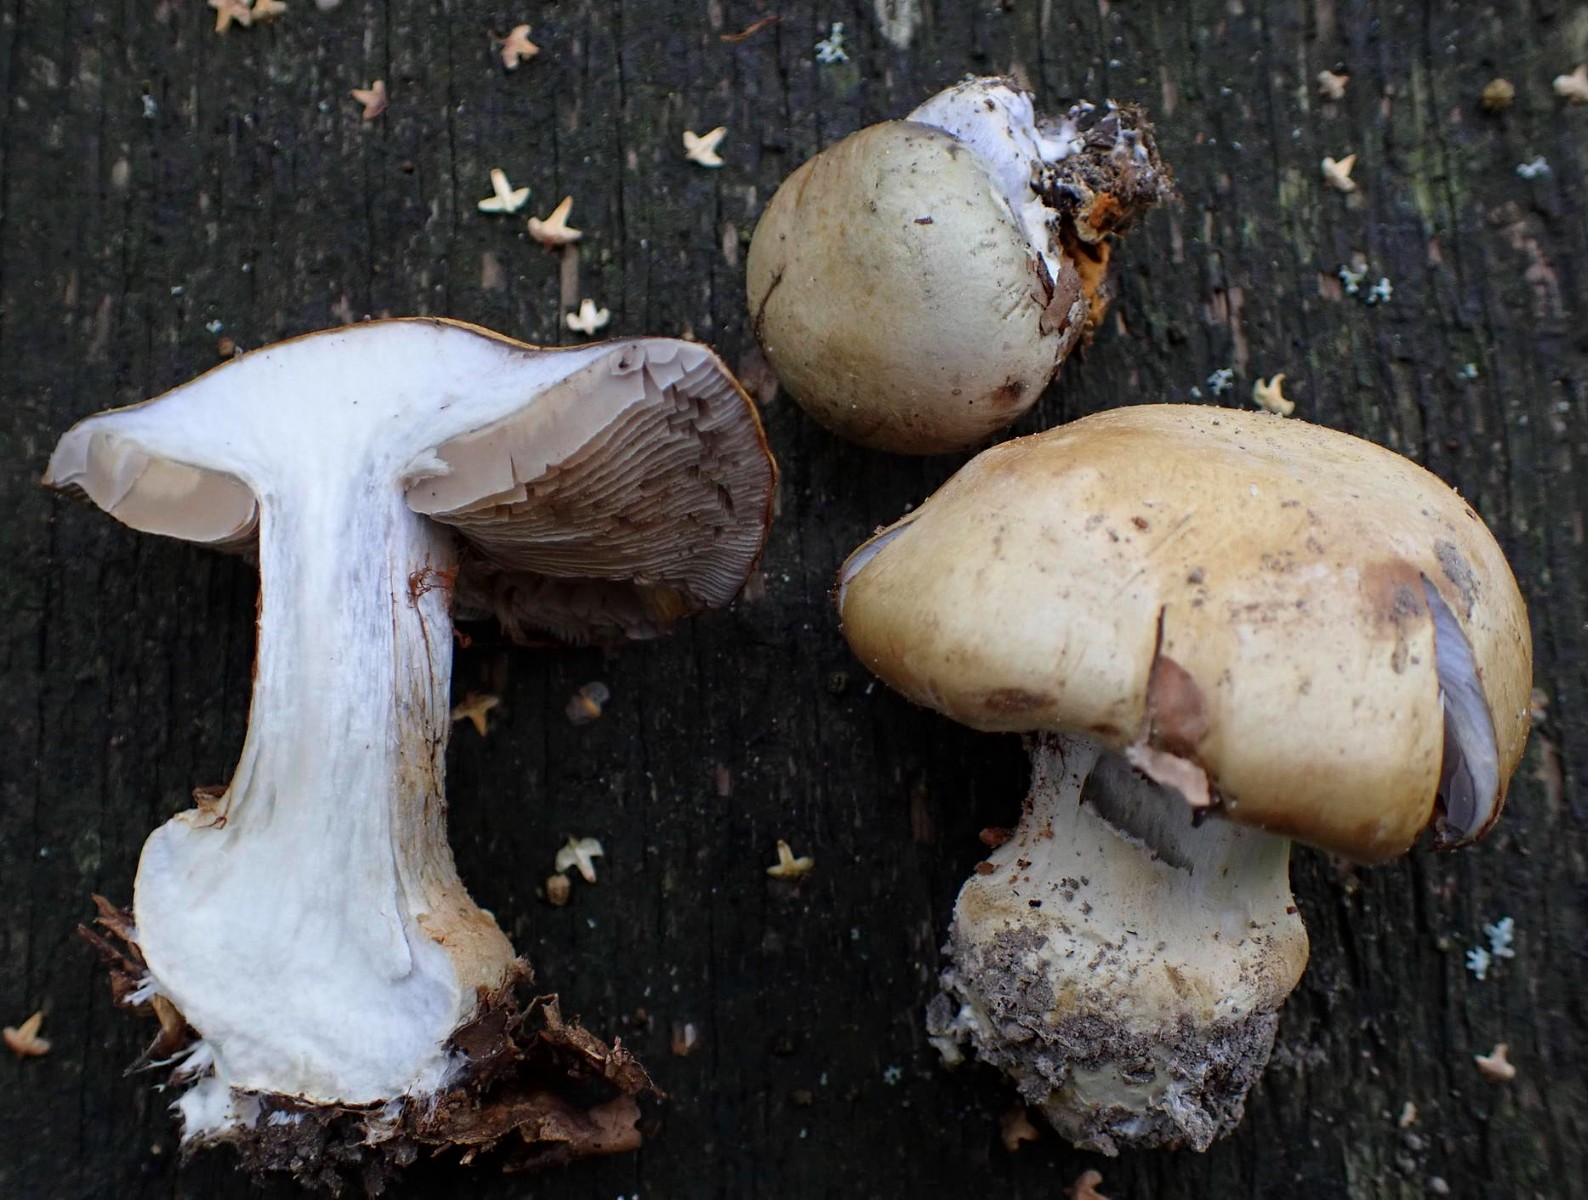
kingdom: Fungi
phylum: Basidiomycota
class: Agaricomycetes
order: Agaricales
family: Cortinariaceae
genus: Cortinarius
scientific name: Cortinarius anserinus
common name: bøge-slørhat
